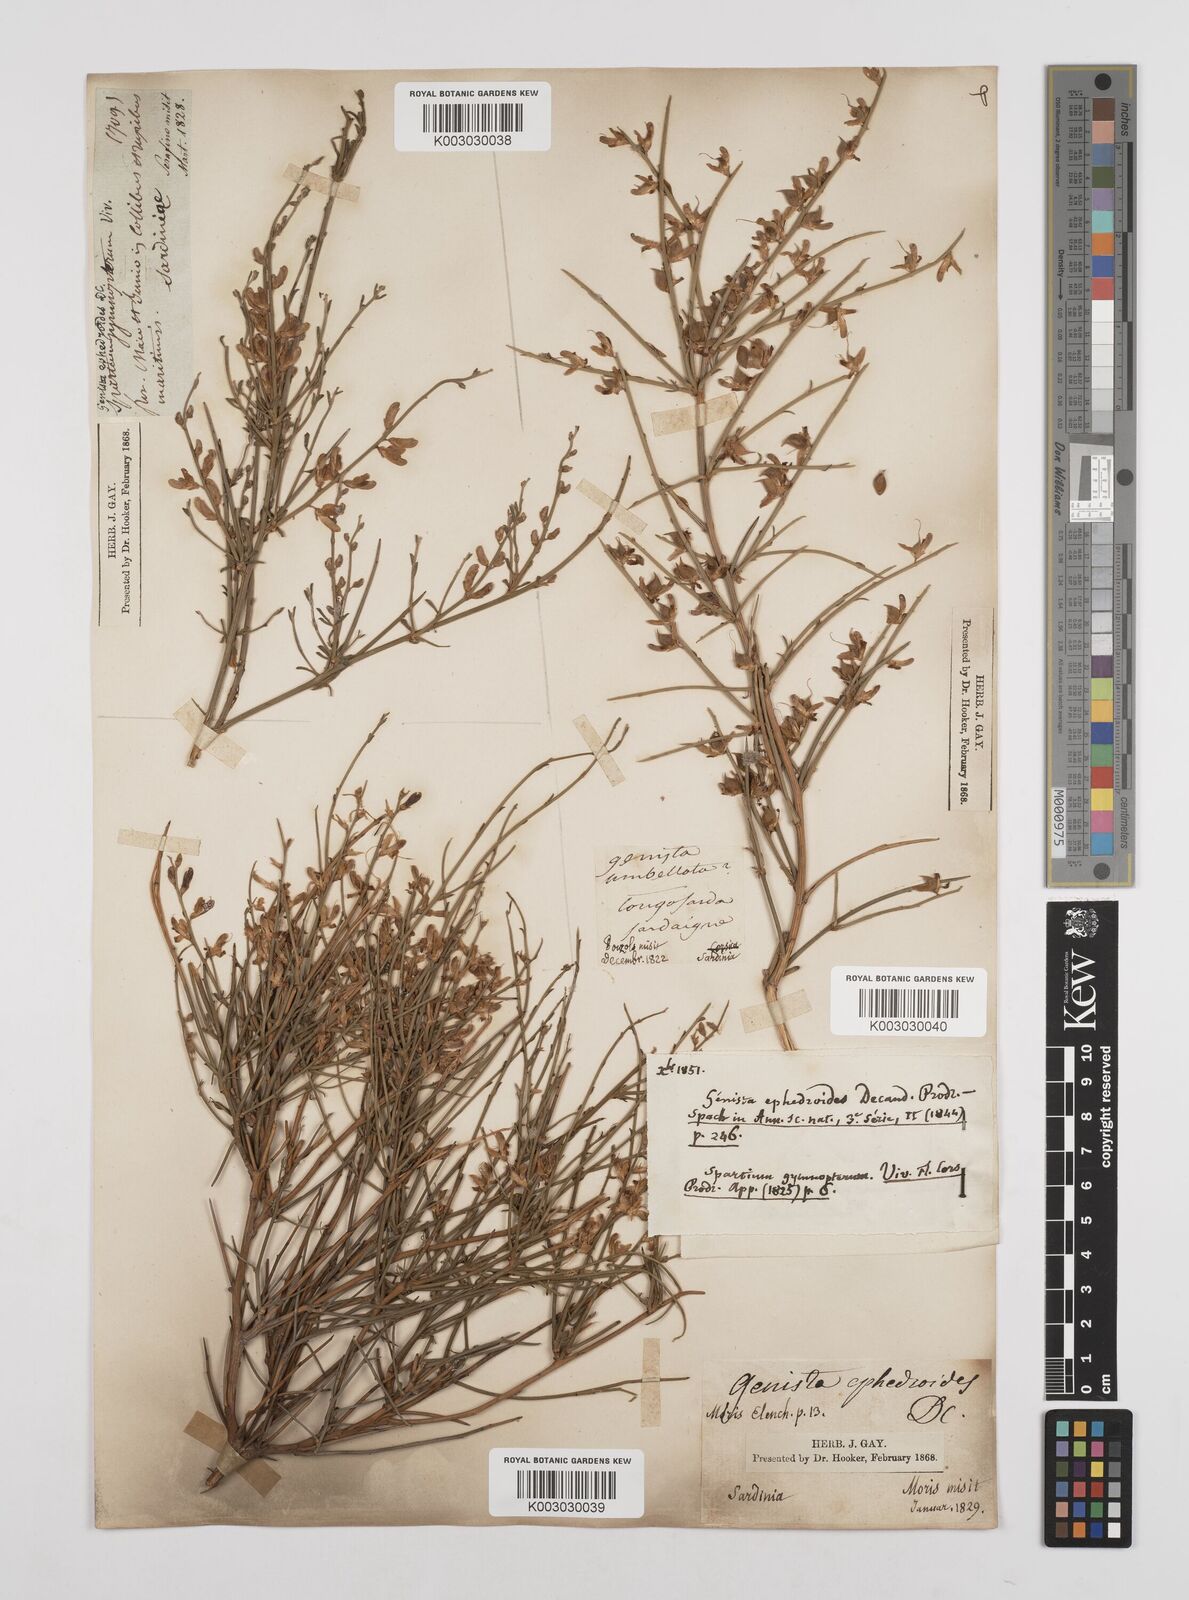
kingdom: Plantae
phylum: Tracheophyta
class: Magnoliopsida
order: Fabales
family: Fabaceae
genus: Genista
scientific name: Genista ephedroides
